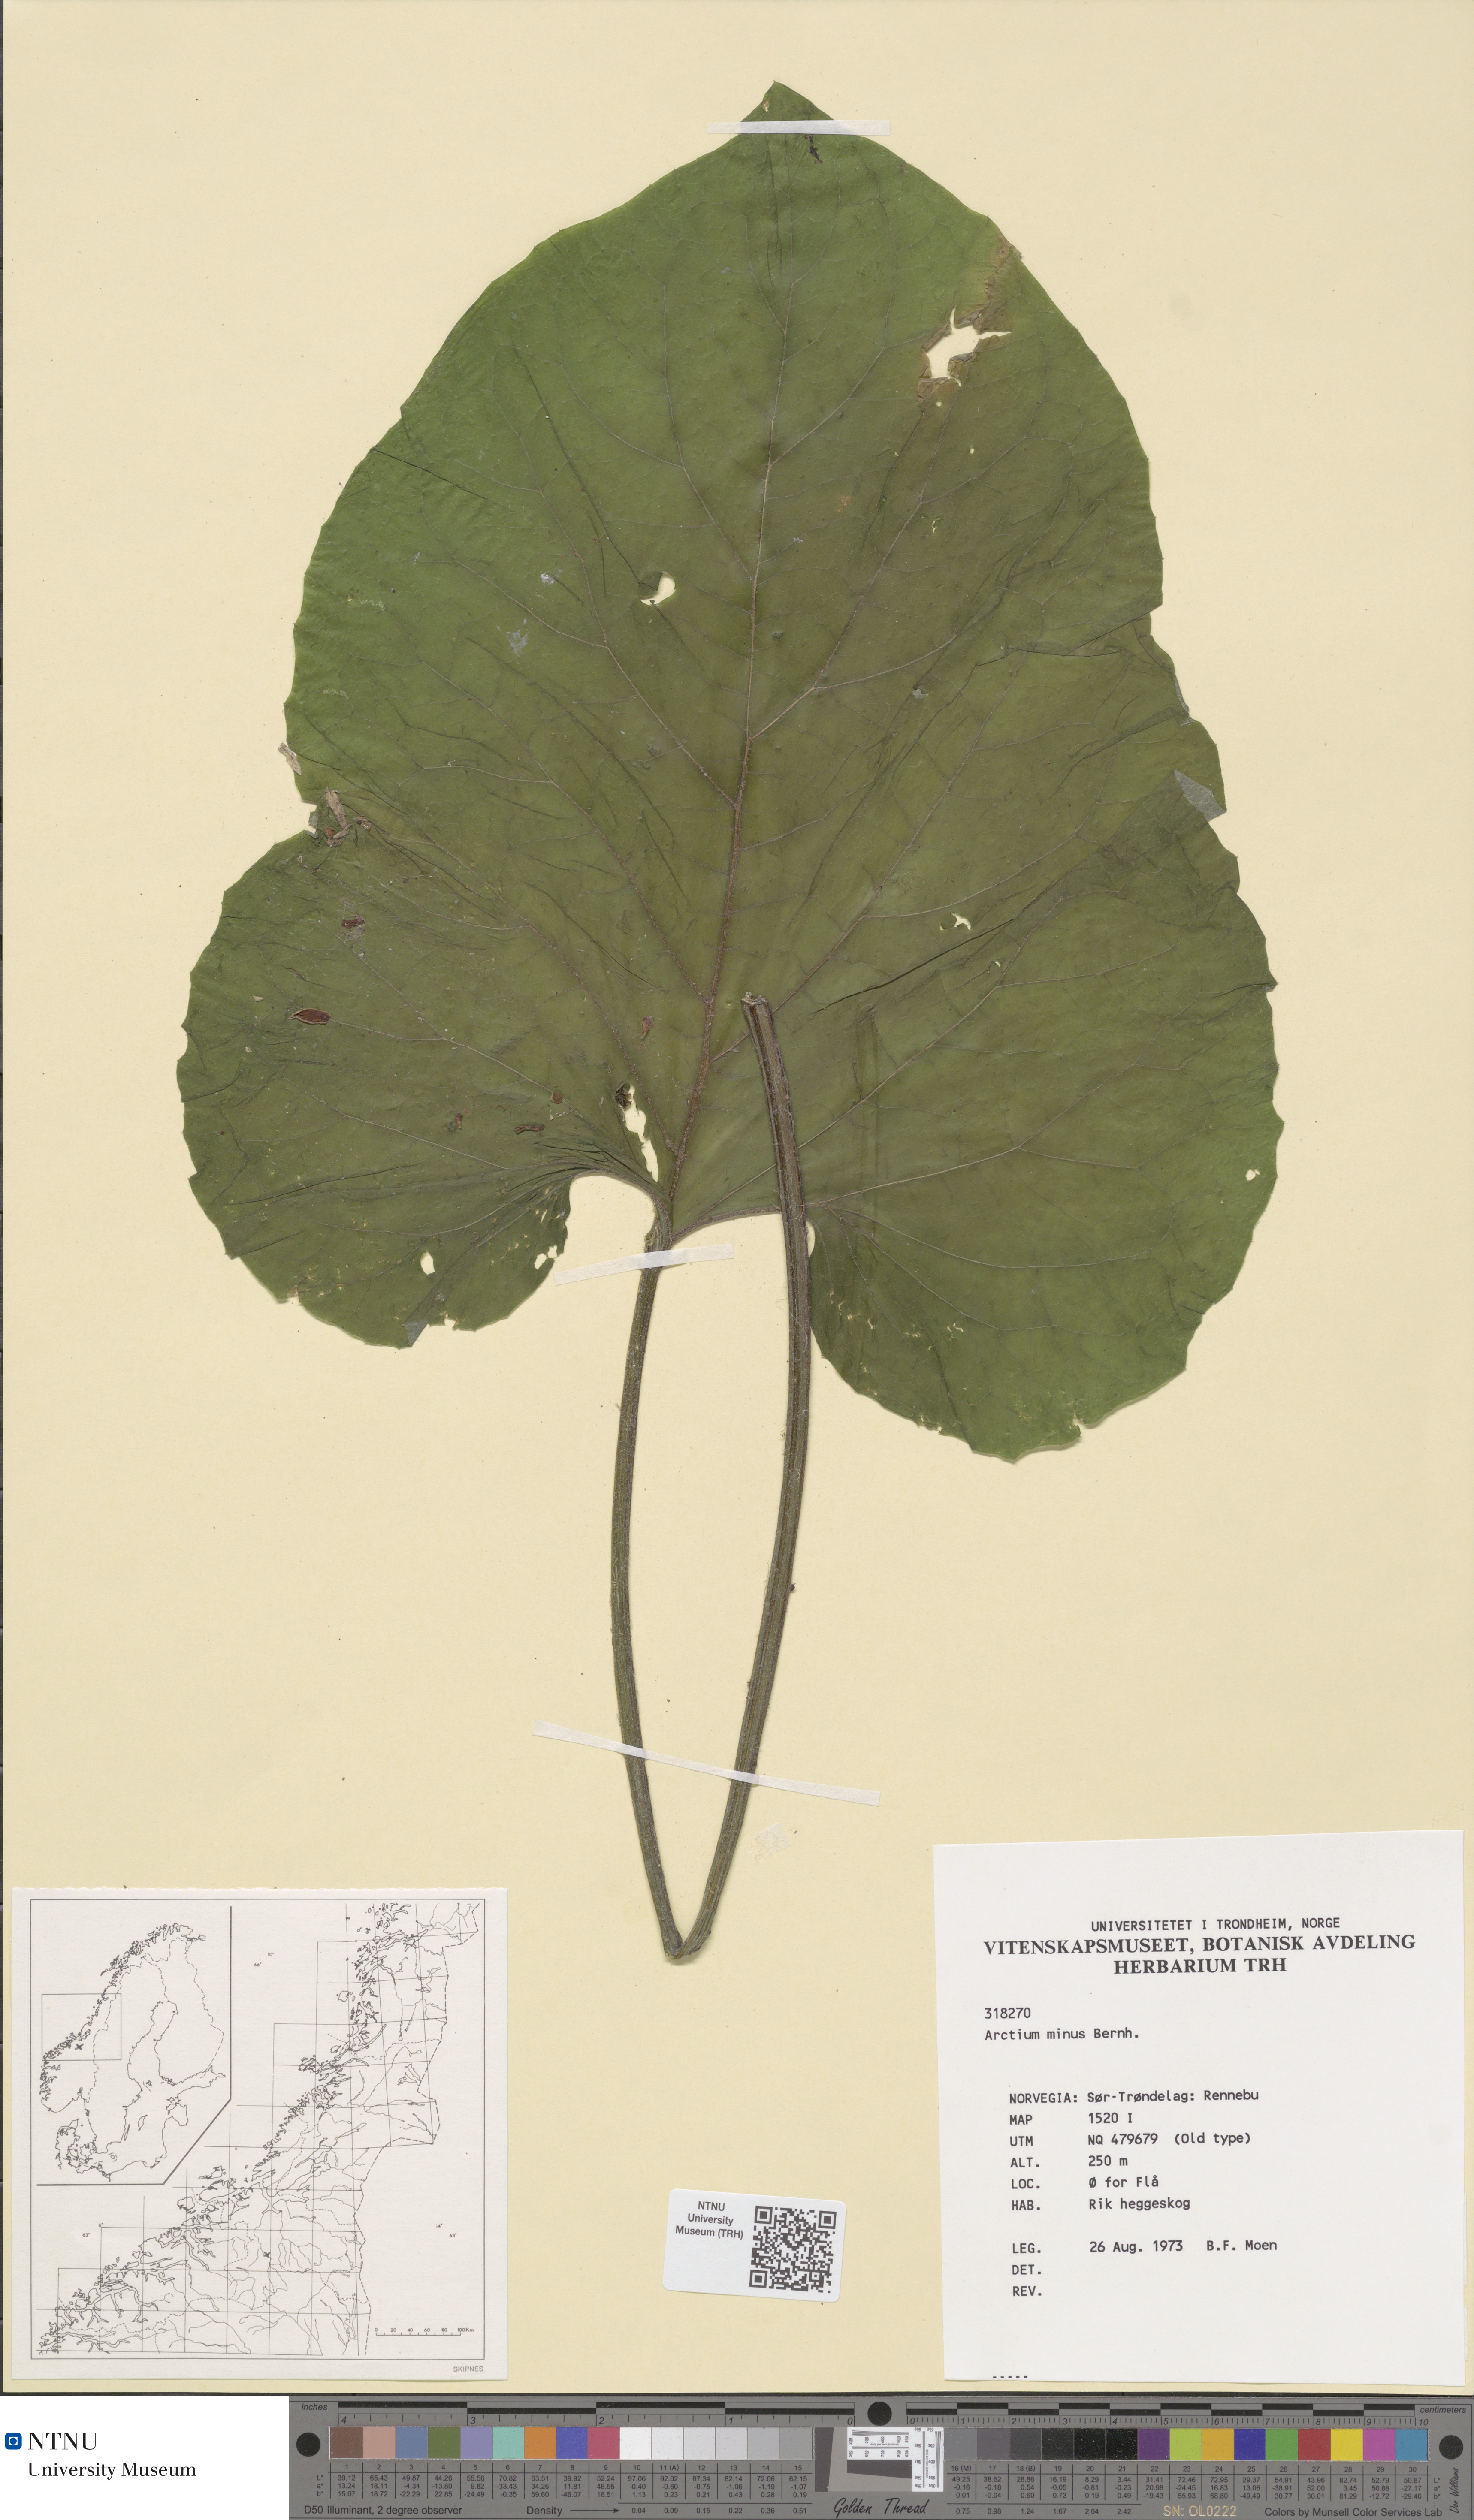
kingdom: Plantae
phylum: Tracheophyta
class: Magnoliopsida
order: Asterales
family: Asteraceae
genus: Arctium
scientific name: Arctium minus
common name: Lesser burdock
